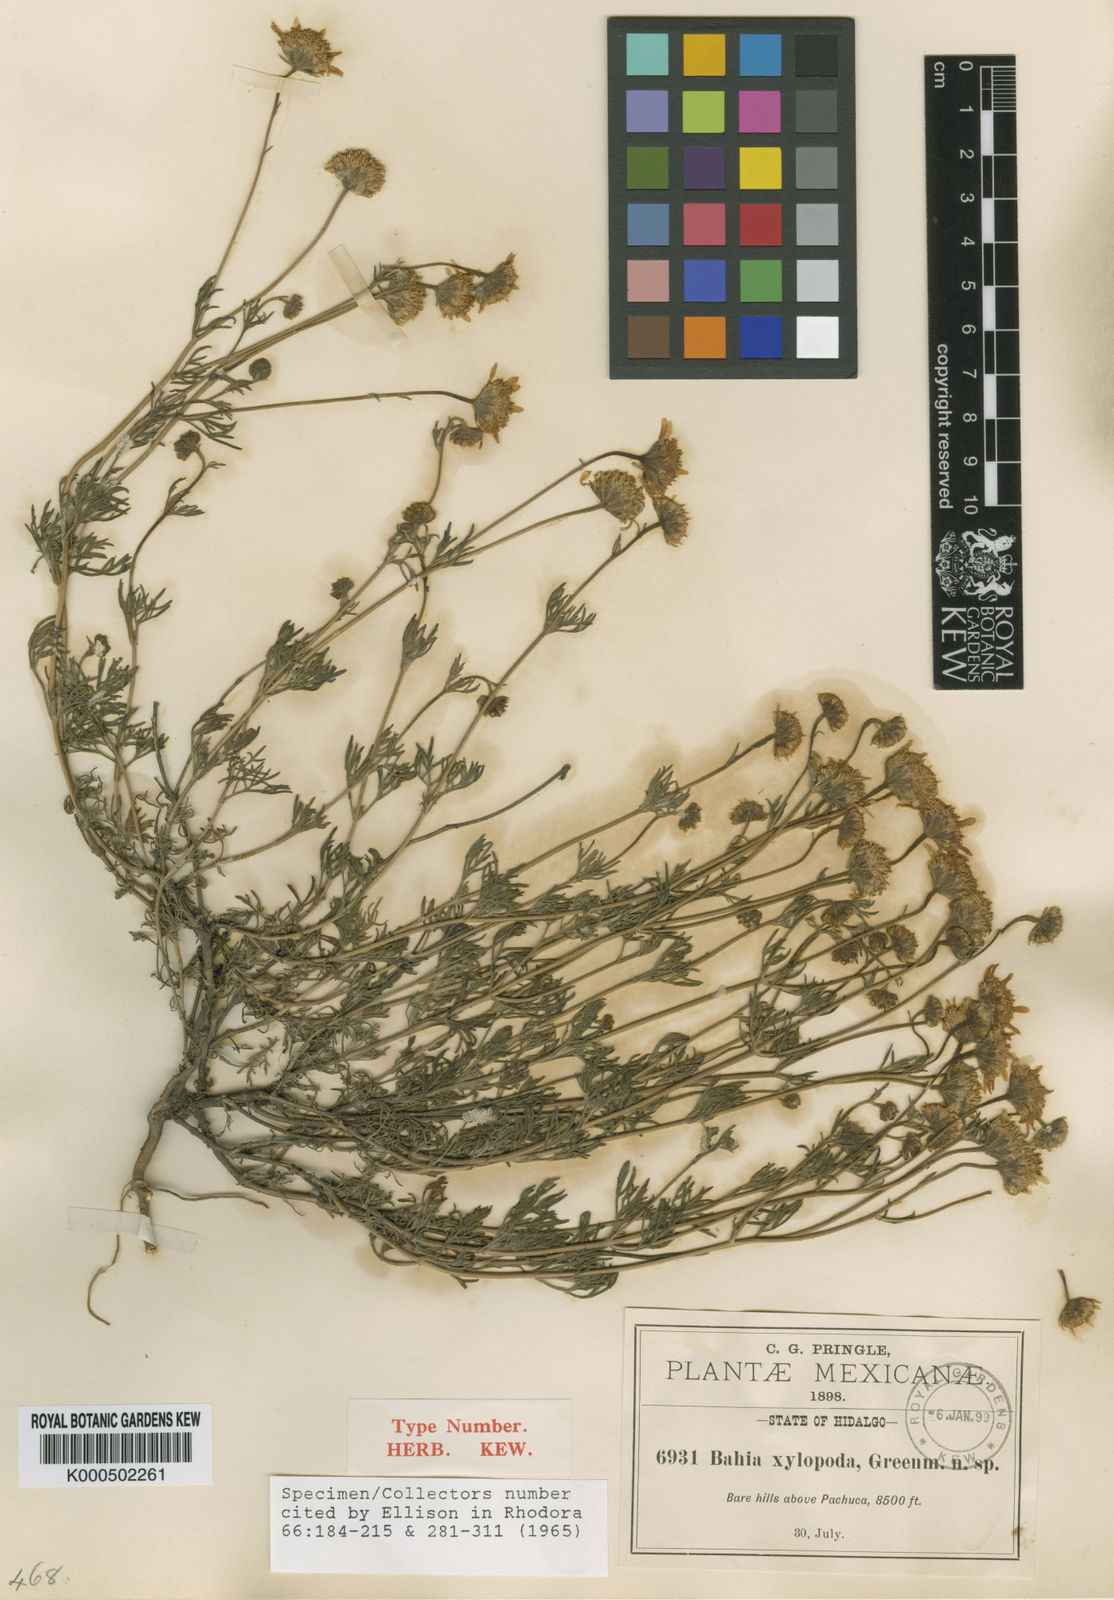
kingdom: Plantae
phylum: Tracheophyta
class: Magnoliopsida
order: Asterales
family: Asteraceae
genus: Picradeniopsis
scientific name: Picradeniopsis xylopoda
